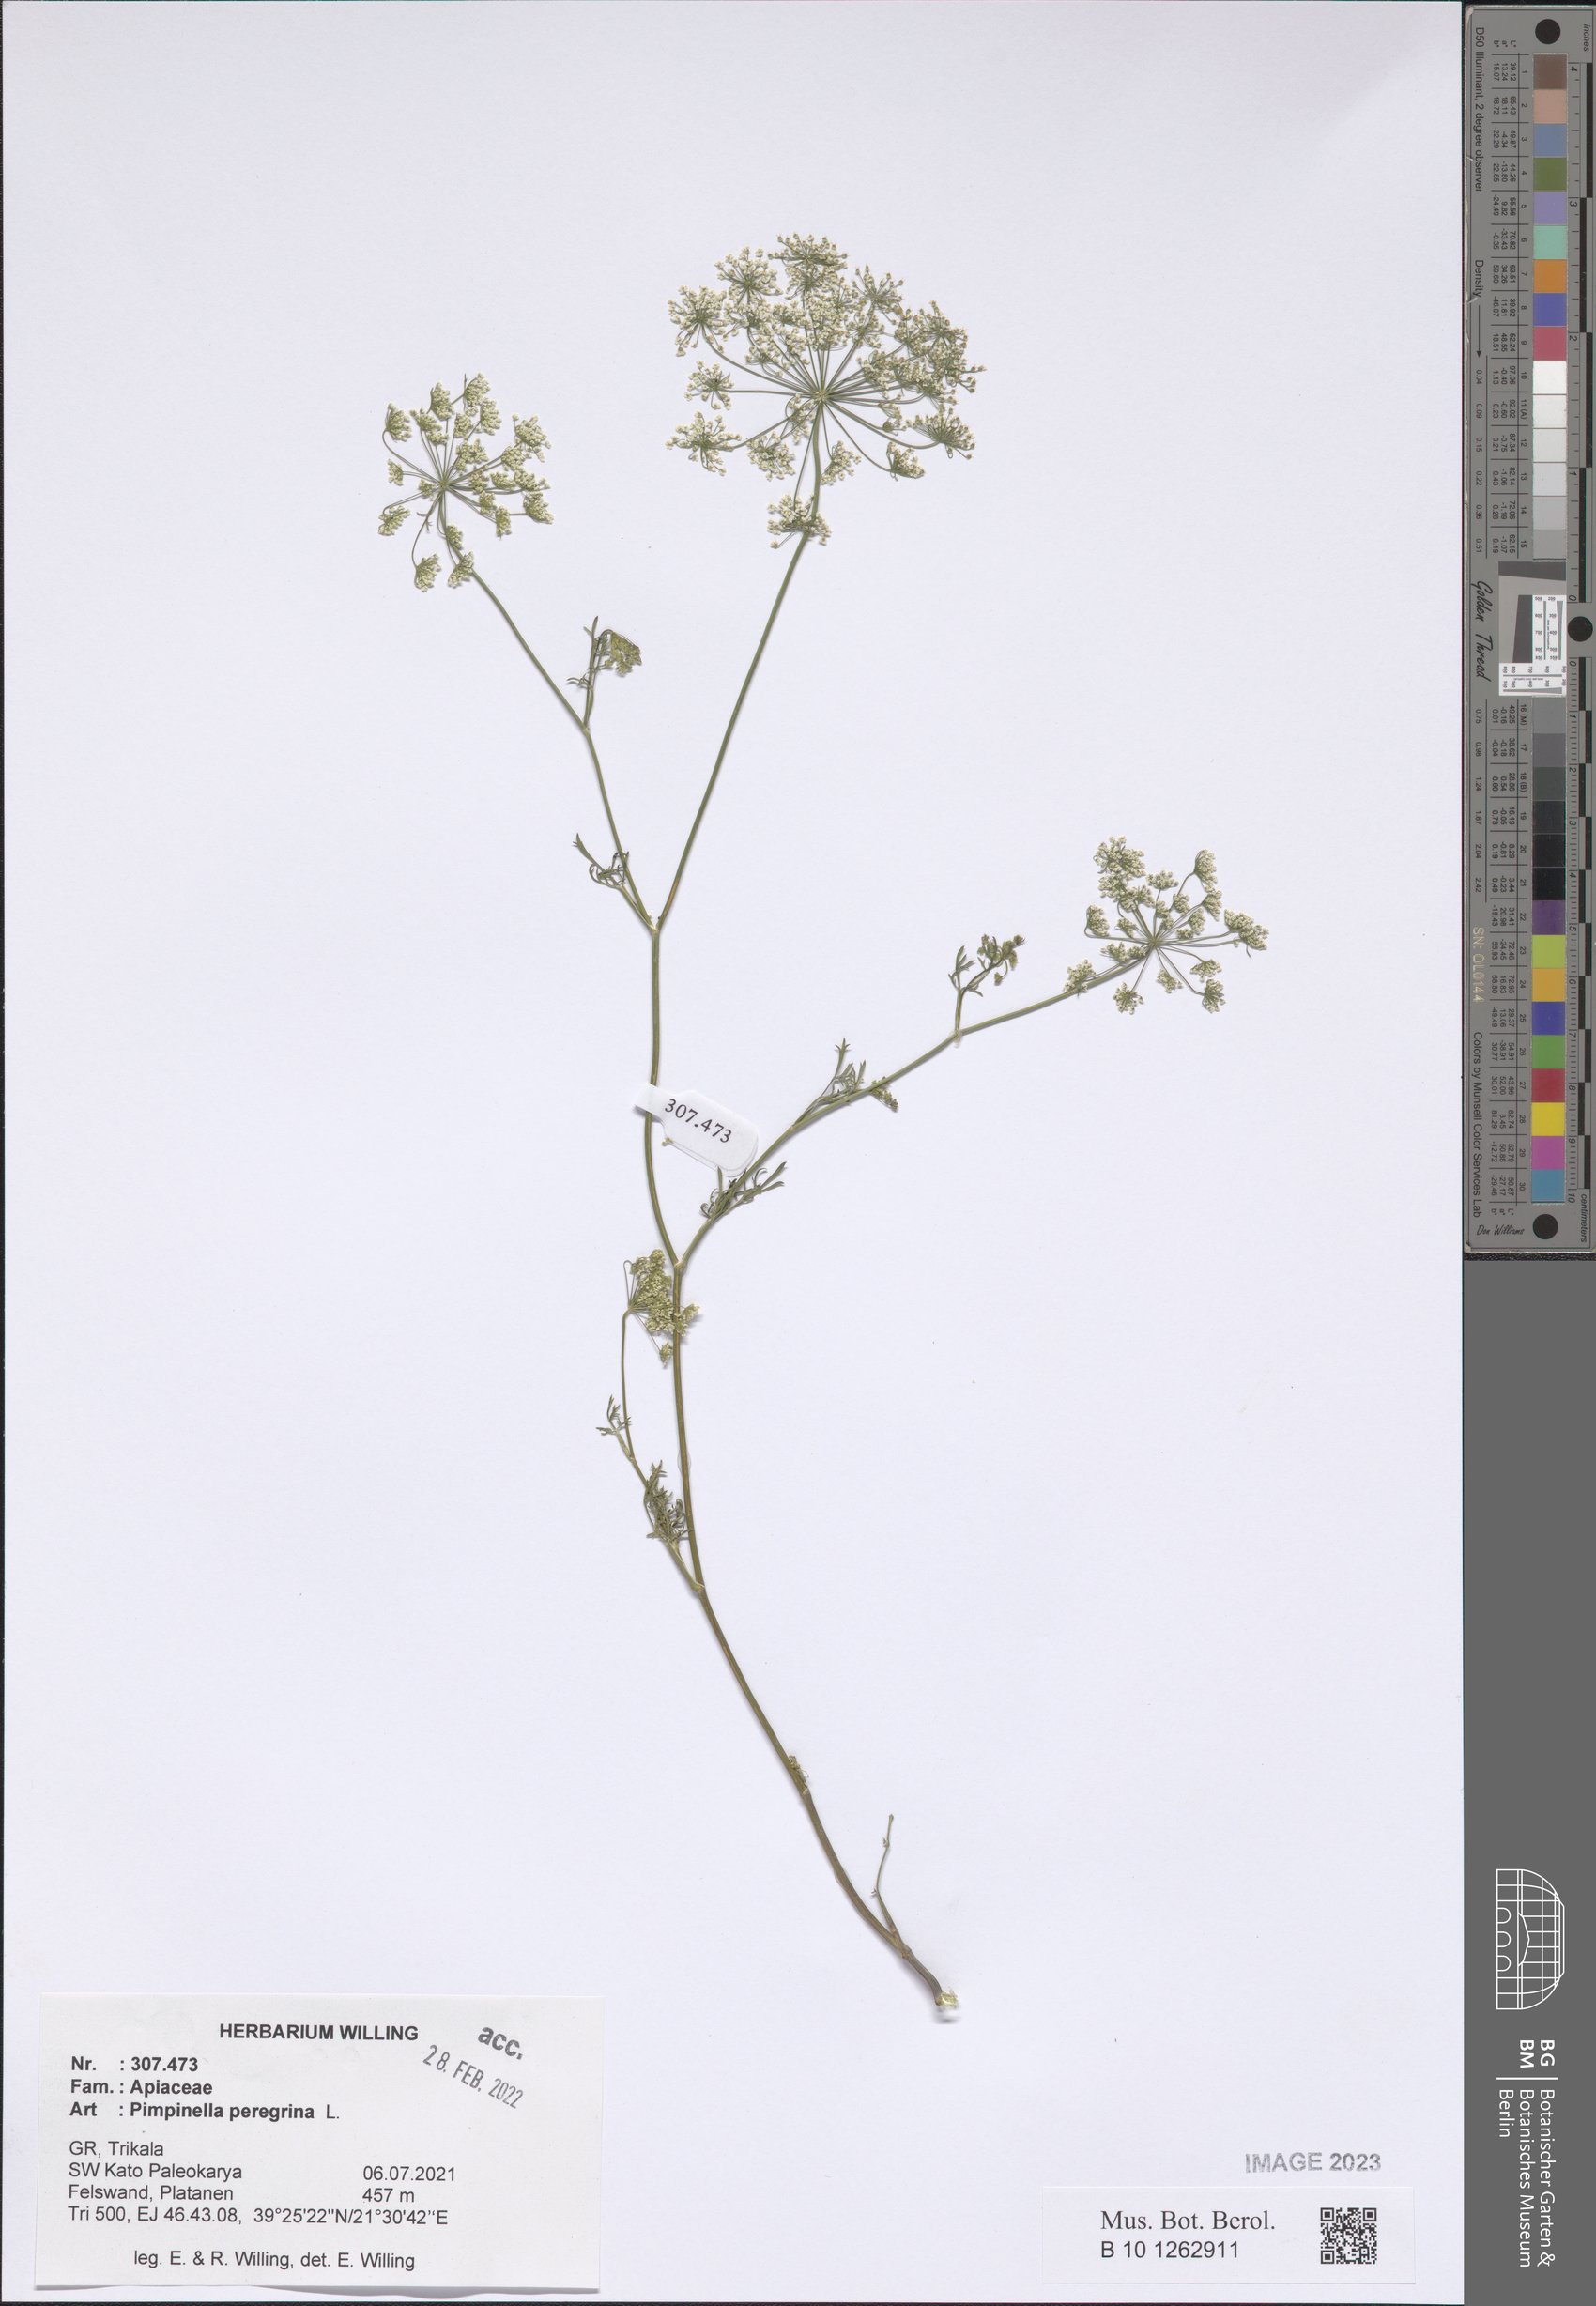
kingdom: Plantae
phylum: Tracheophyta
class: Magnoliopsida
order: Apiales
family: Apiaceae
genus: Pimpinella
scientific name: Pimpinella peregrina
